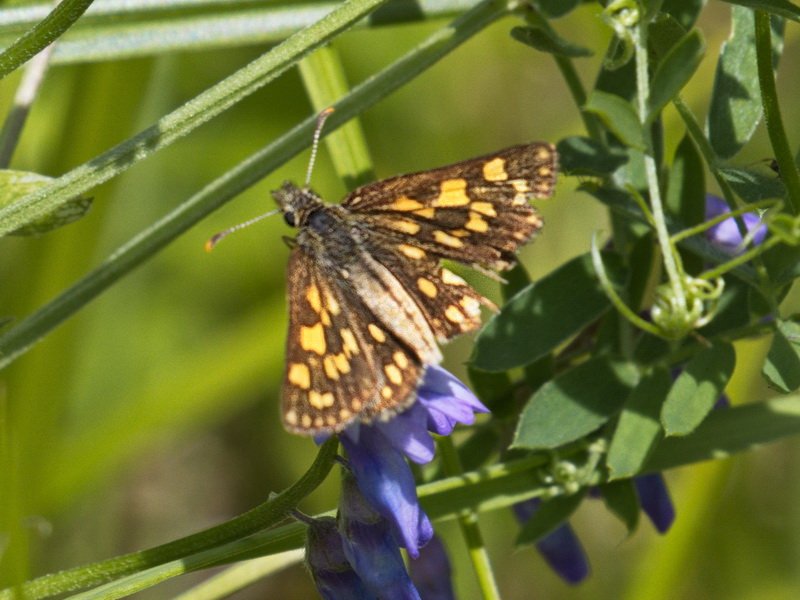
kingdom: Animalia
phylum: Arthropoda
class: Insecta
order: Lepidoptera
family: Hesperiidae
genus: Carterocephalus
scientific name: Carterocephalus palaemon
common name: Chequered Skipper
